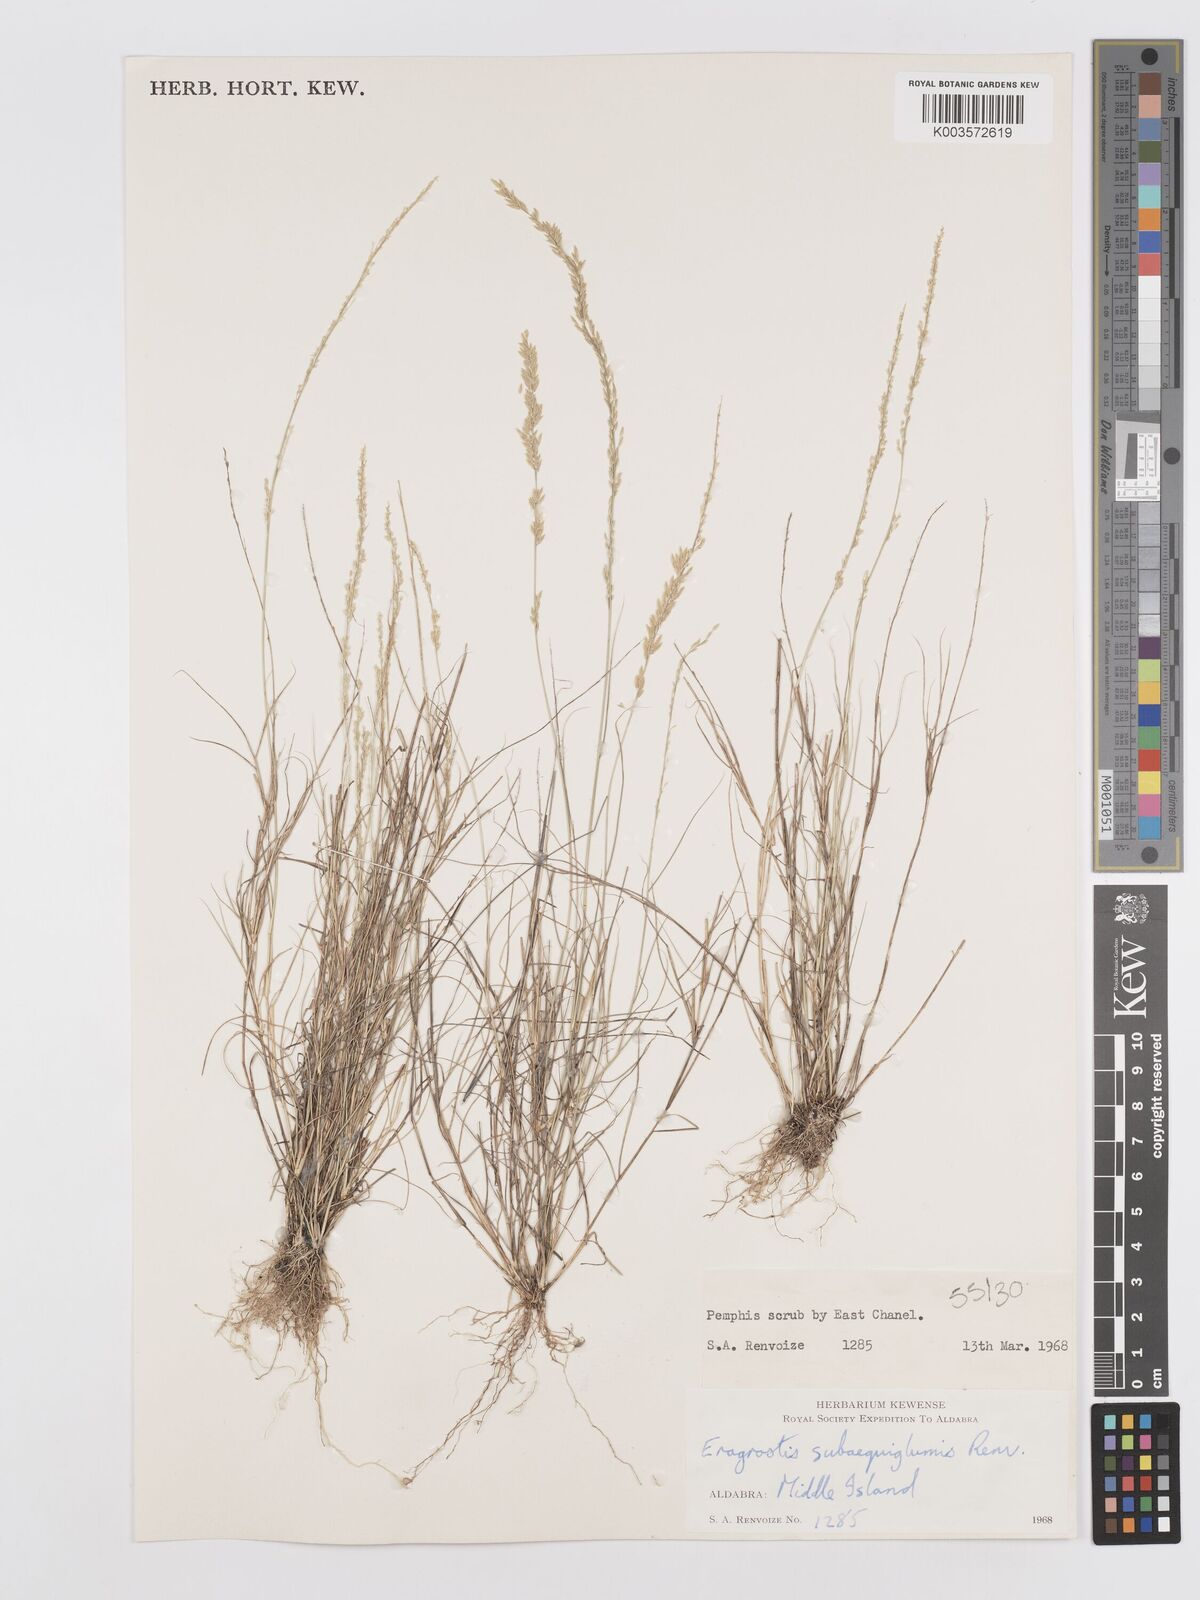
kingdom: Plantae
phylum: Tracheophyta
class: Liliopsida
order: Poales
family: Poaceae
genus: Eragrostis
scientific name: Eragrostis subaequiglumis
